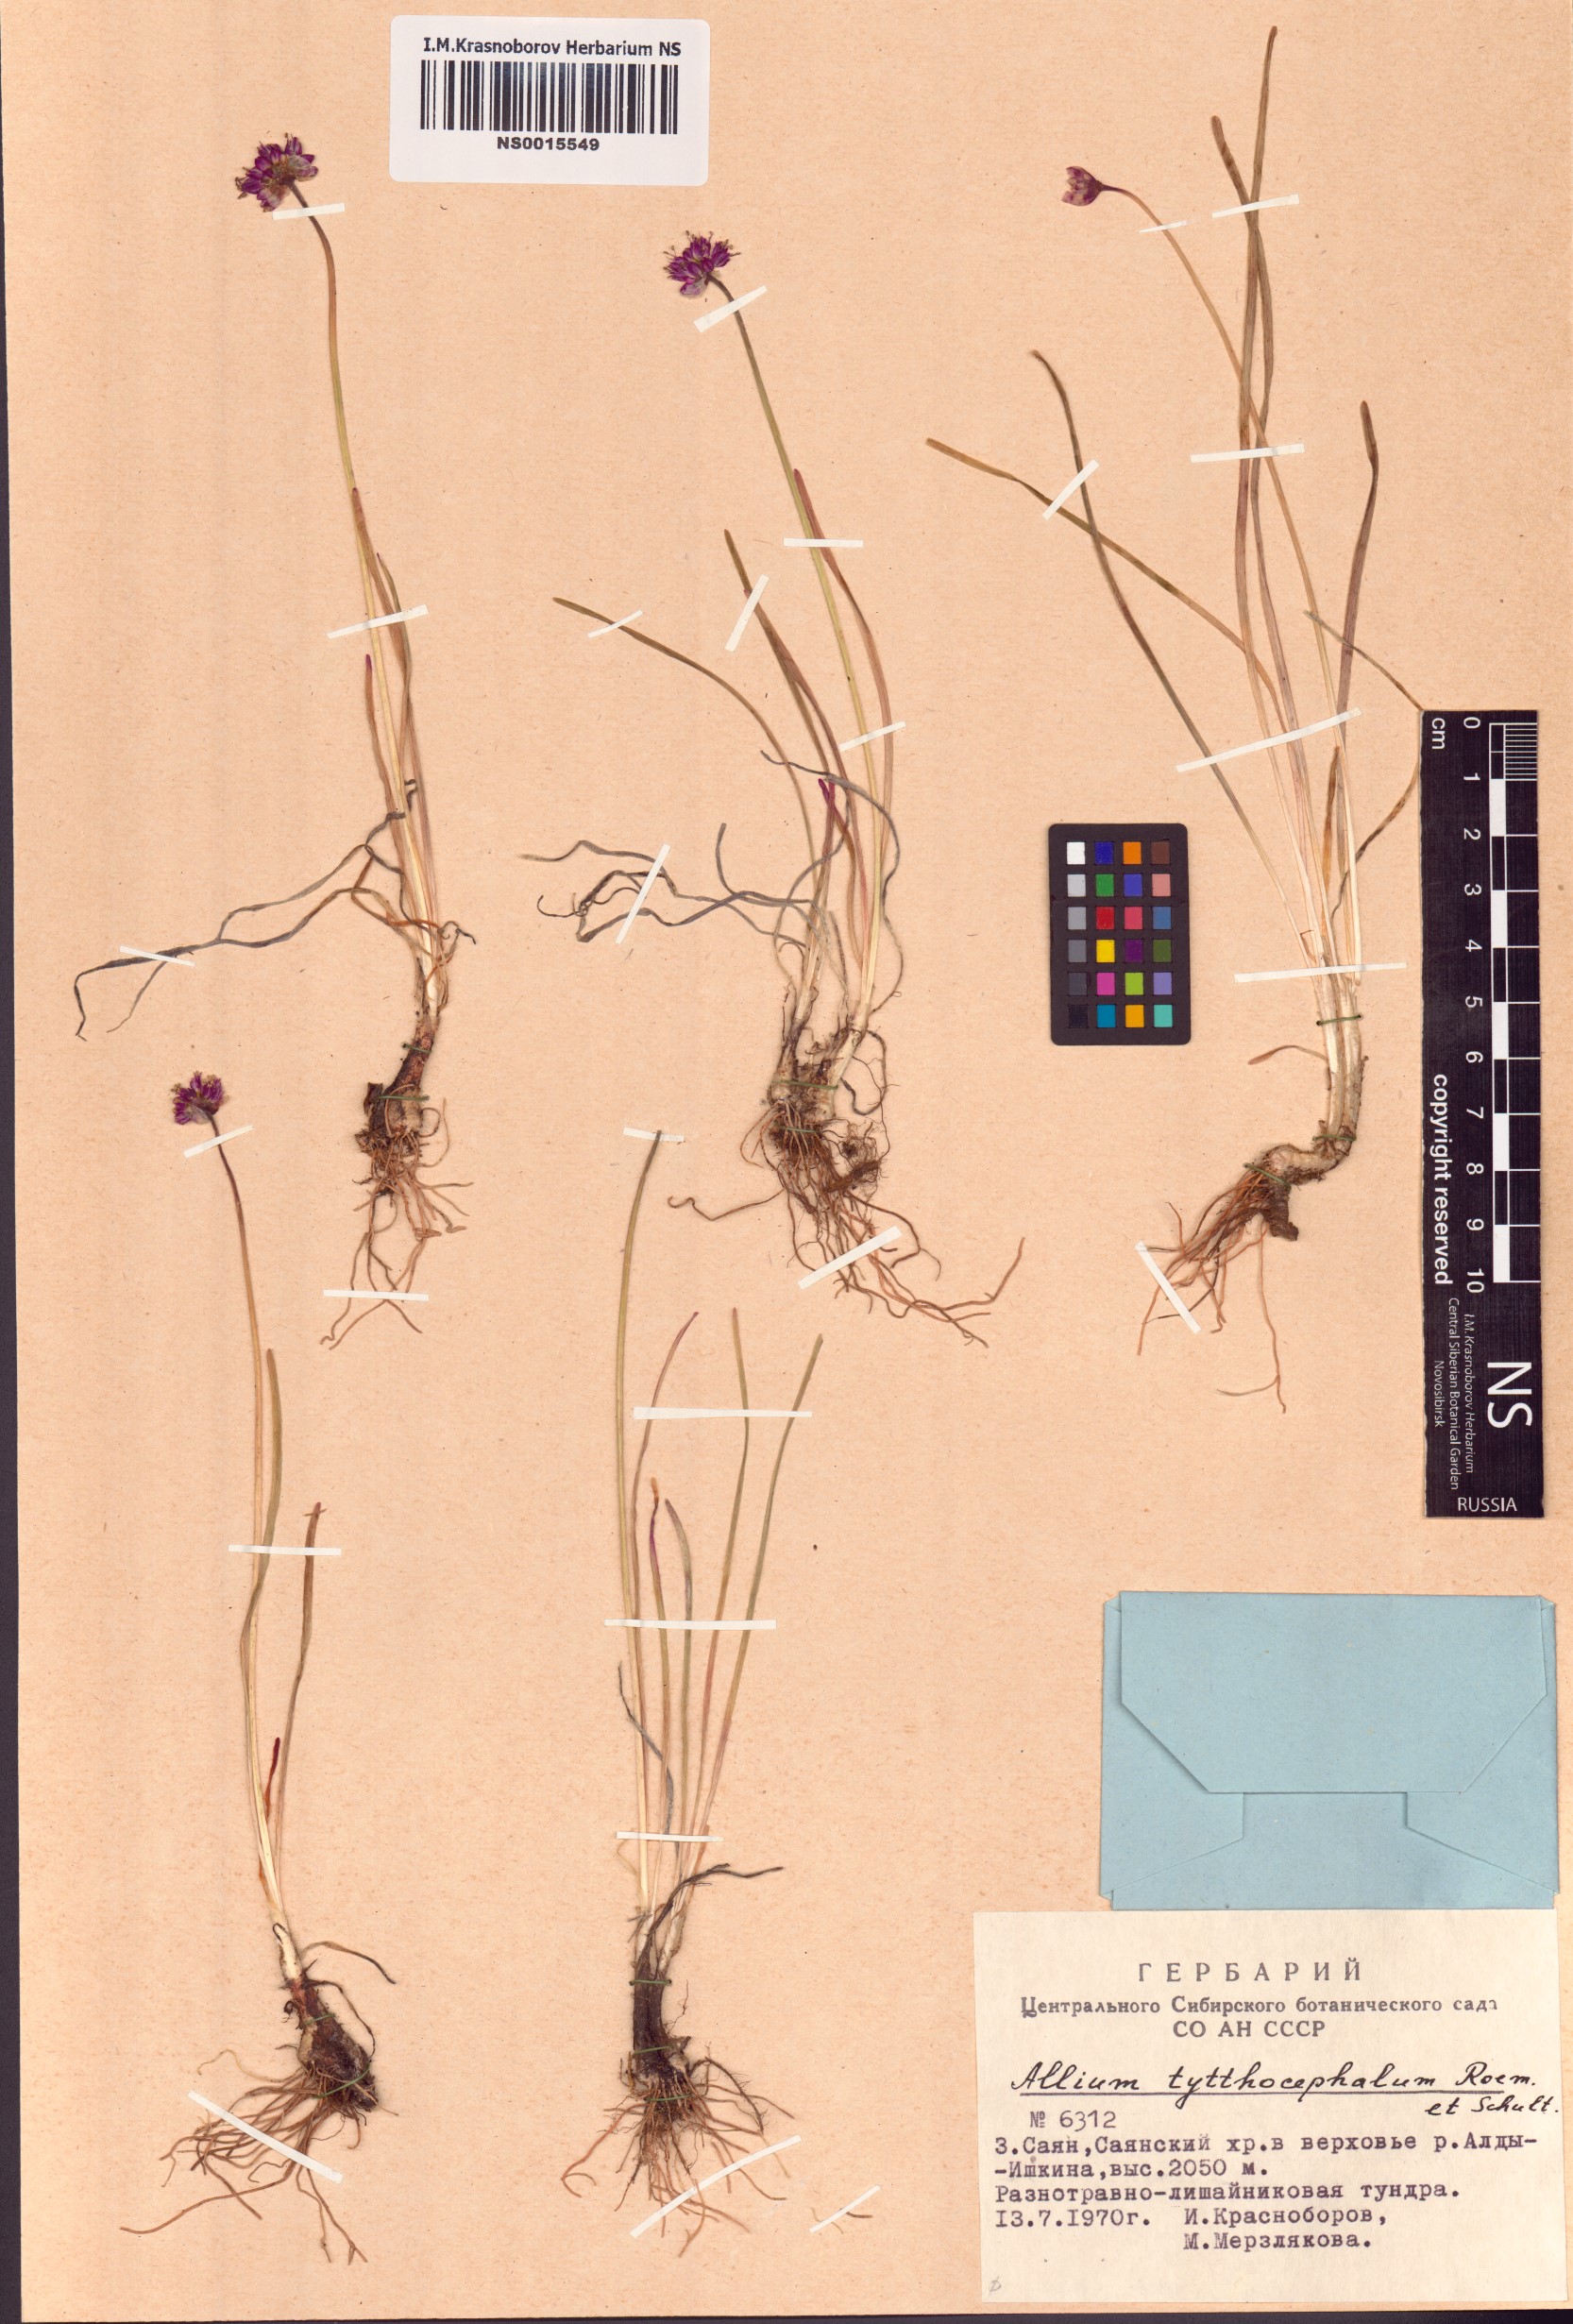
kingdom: Plantae
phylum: Tracheophyta
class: Liliopsida
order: Asparagales
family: Amaryllidaceae
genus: Allium
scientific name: Allium tytthocephalum
